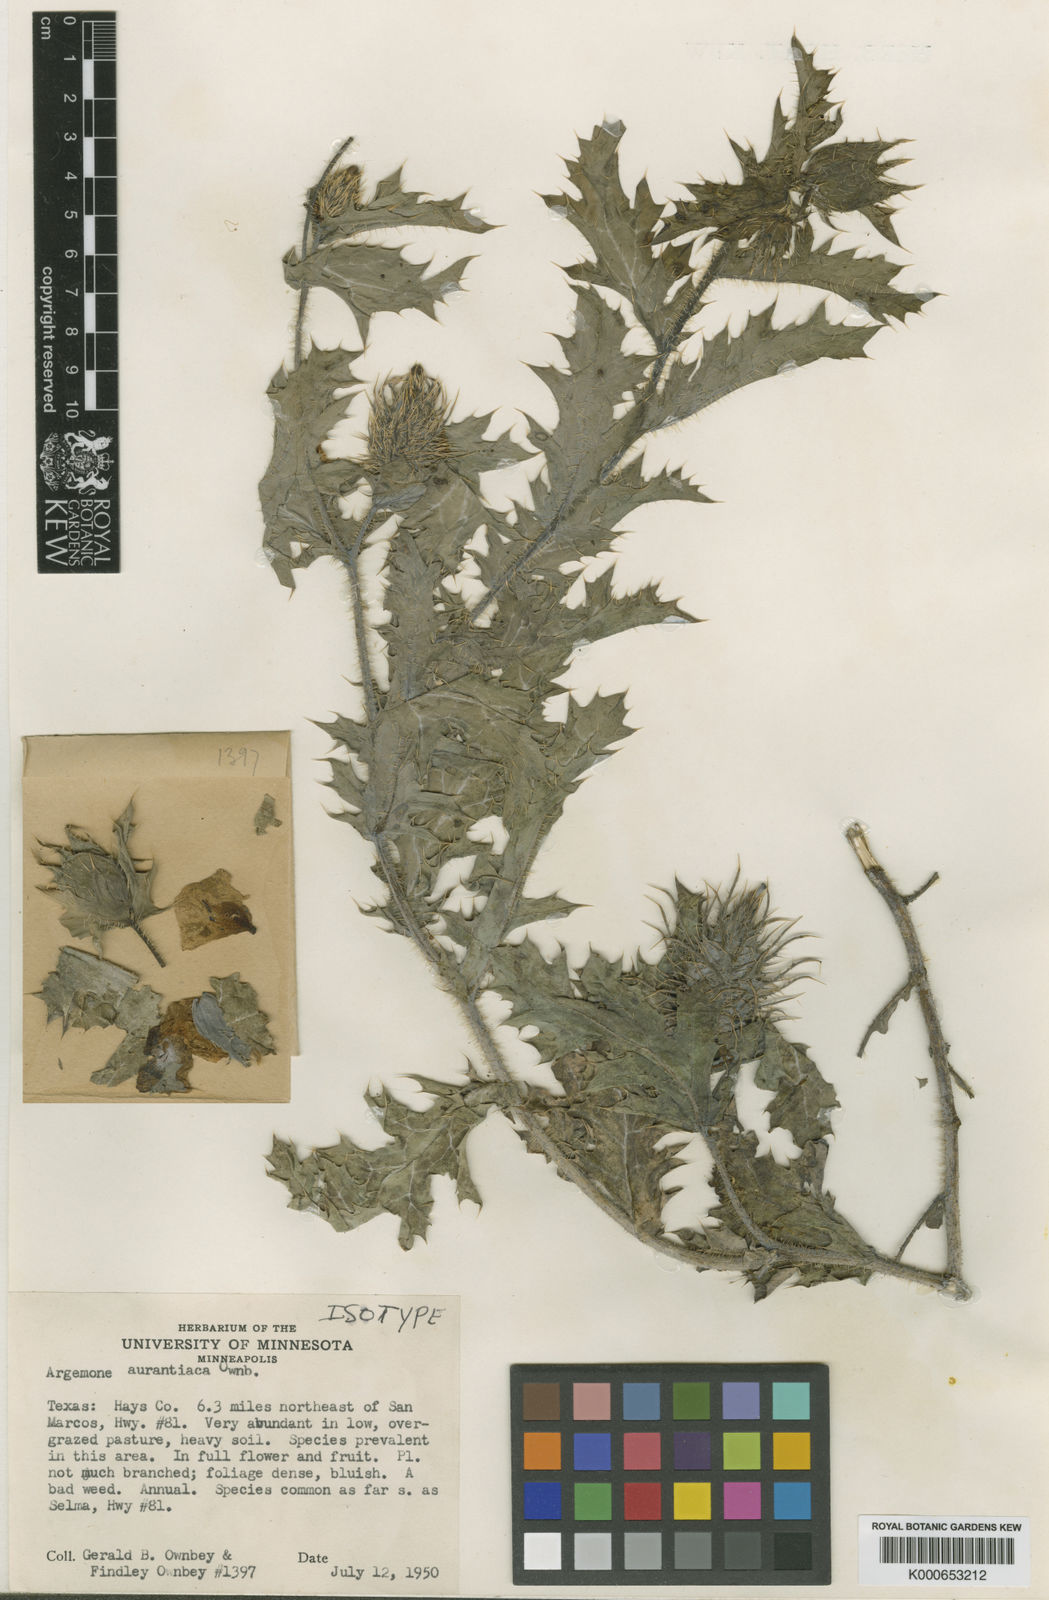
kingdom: Plantae
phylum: Tracheophyta
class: Magnoliopsida
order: Ranunculales
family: Papaveraceae
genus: Argemone
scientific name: Argemone aurantiaca
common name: Texas prickly-poppy
